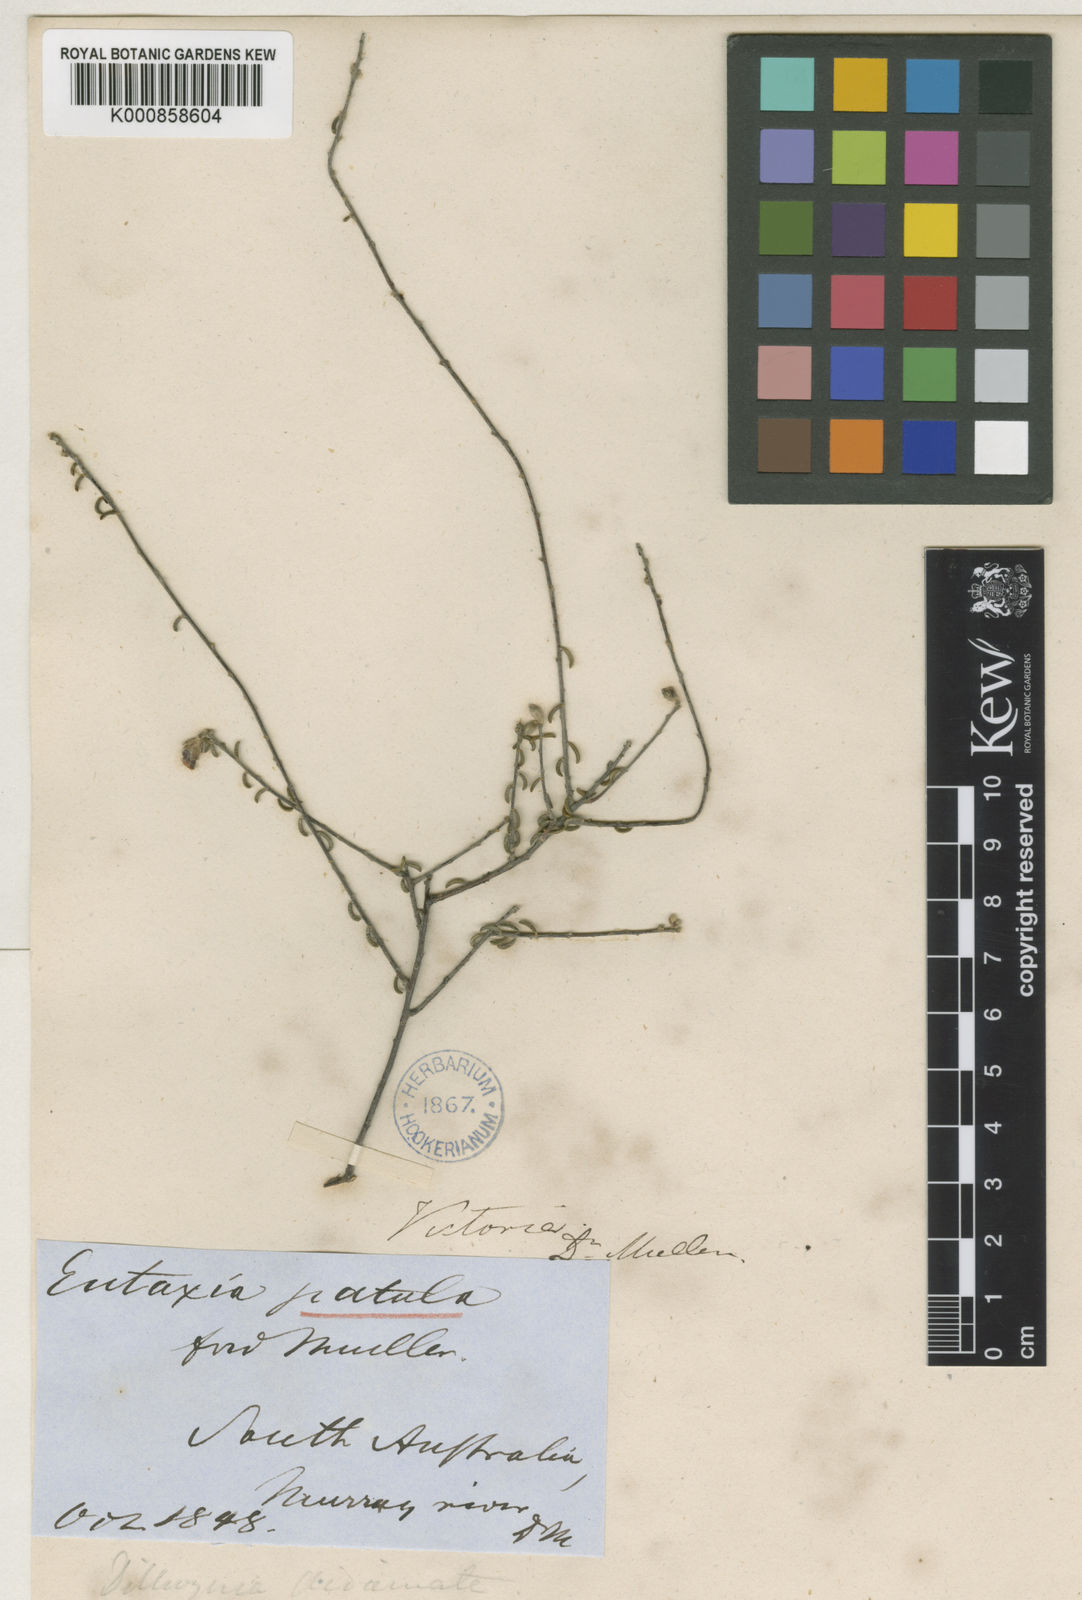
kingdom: Plantae
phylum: Tracheophyta
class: Magnoliopsida
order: Fabales
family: Fabaceae
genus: Dillwynia
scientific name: Dillwynia uncinata
